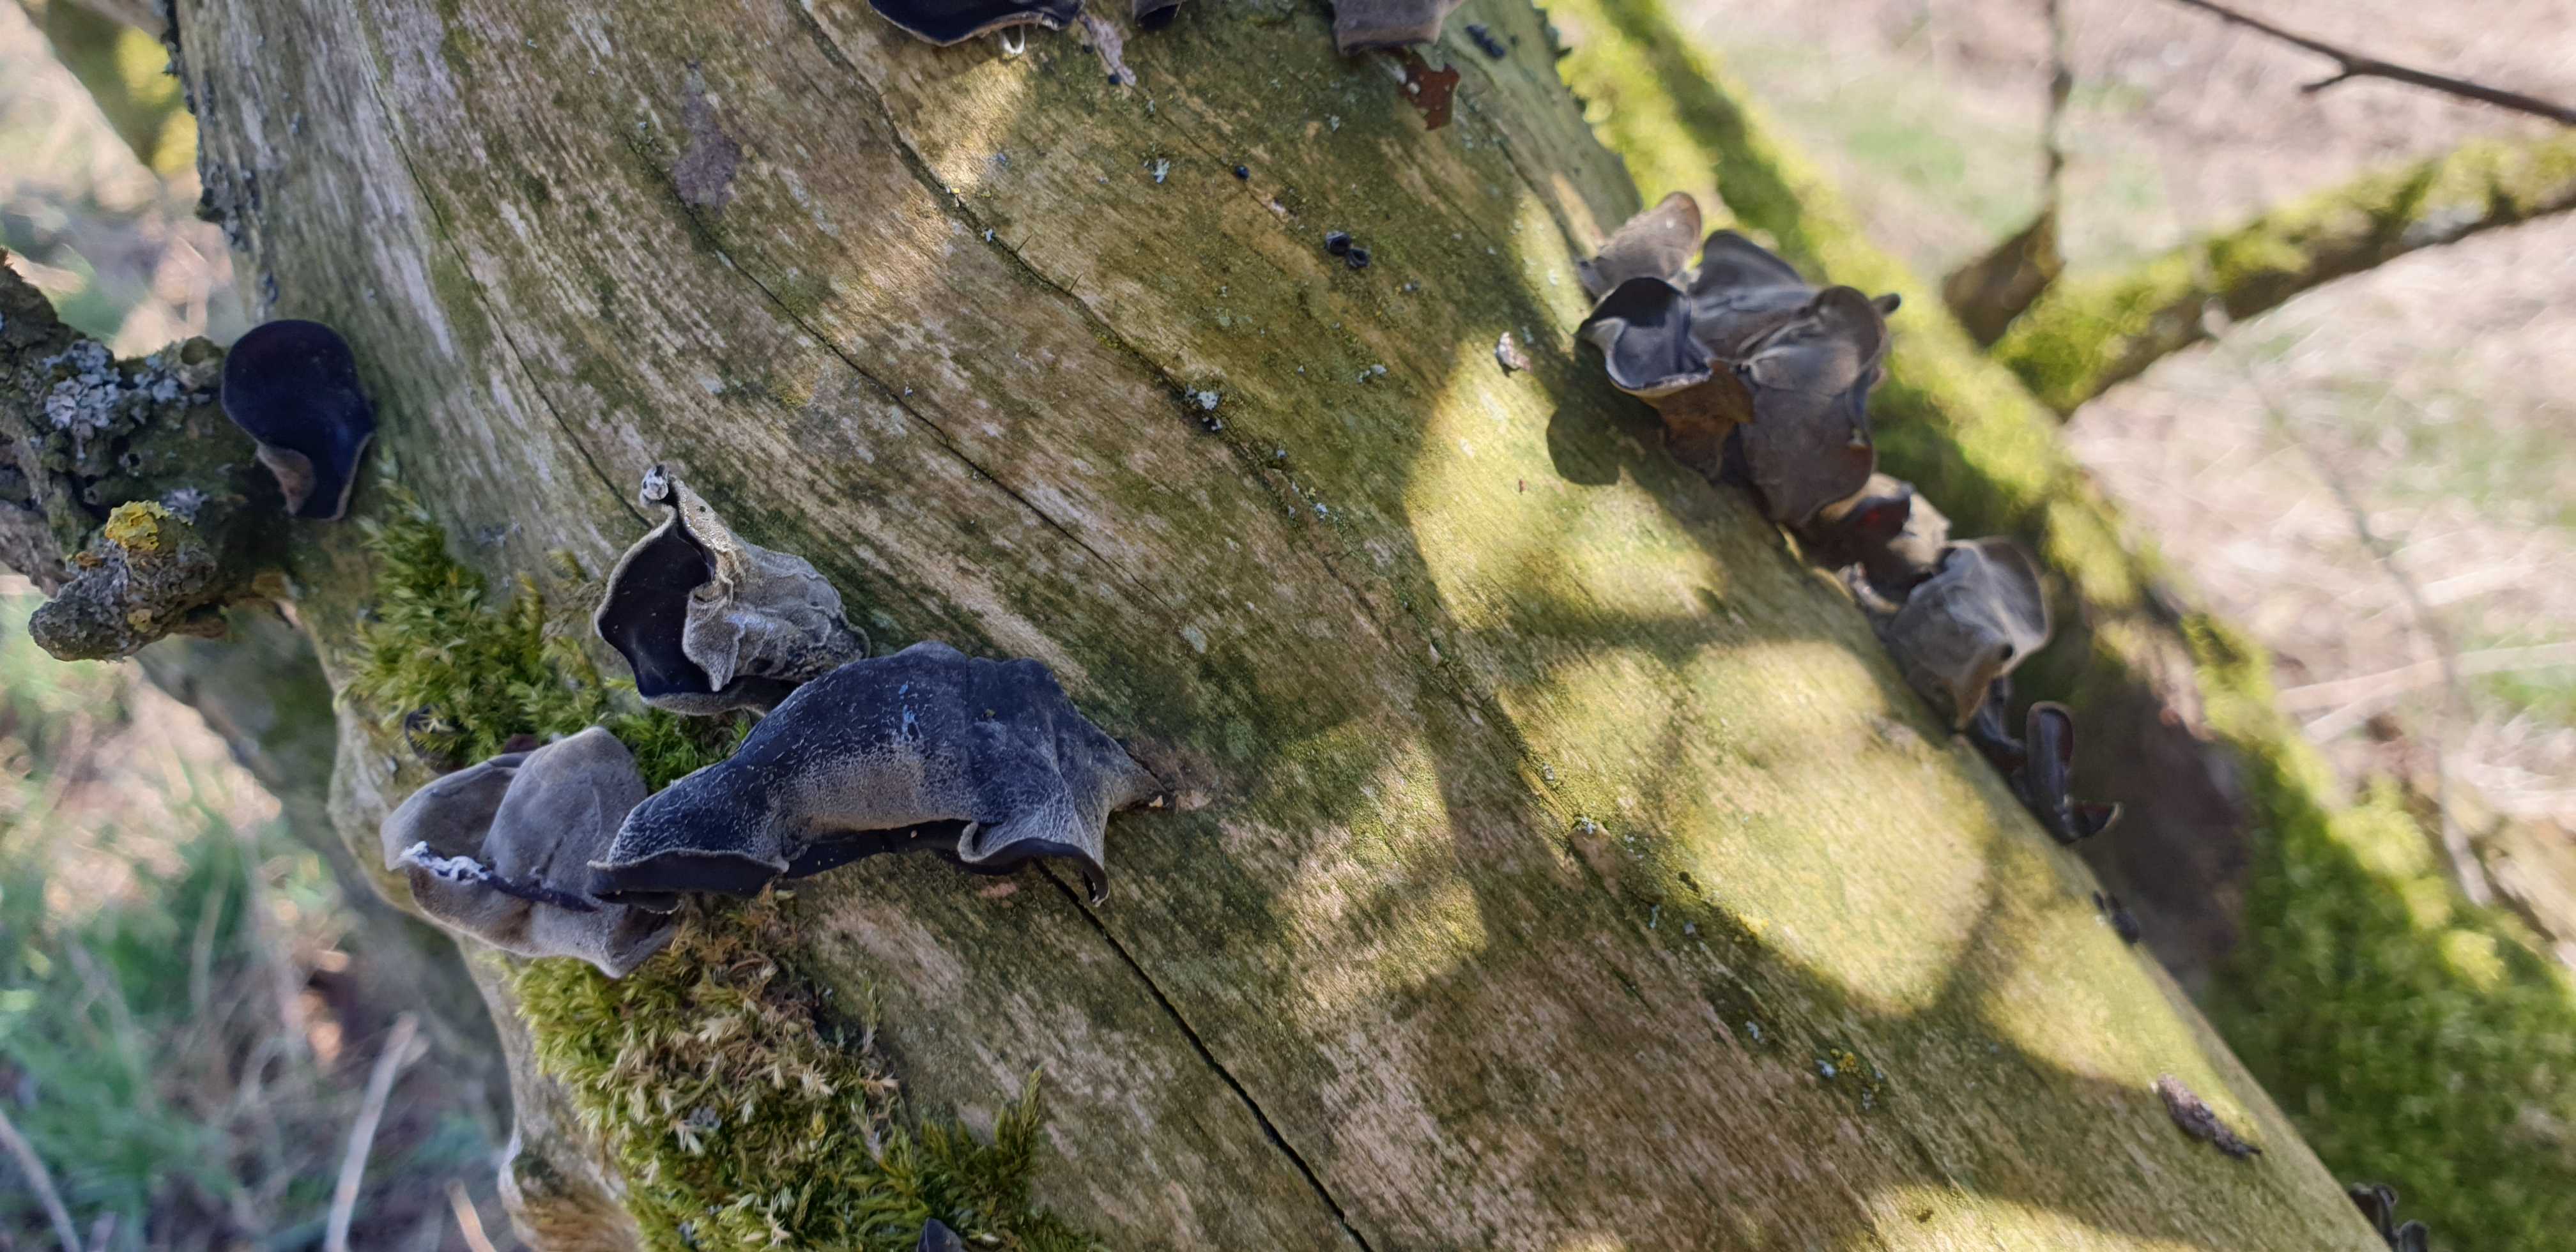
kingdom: Fungi
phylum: Basidiomycota
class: Agaricomycetes
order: Auriculariales
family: Auriculariaceae
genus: Auricularia
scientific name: Auricularia auricula-judae
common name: almindelig judasøre
